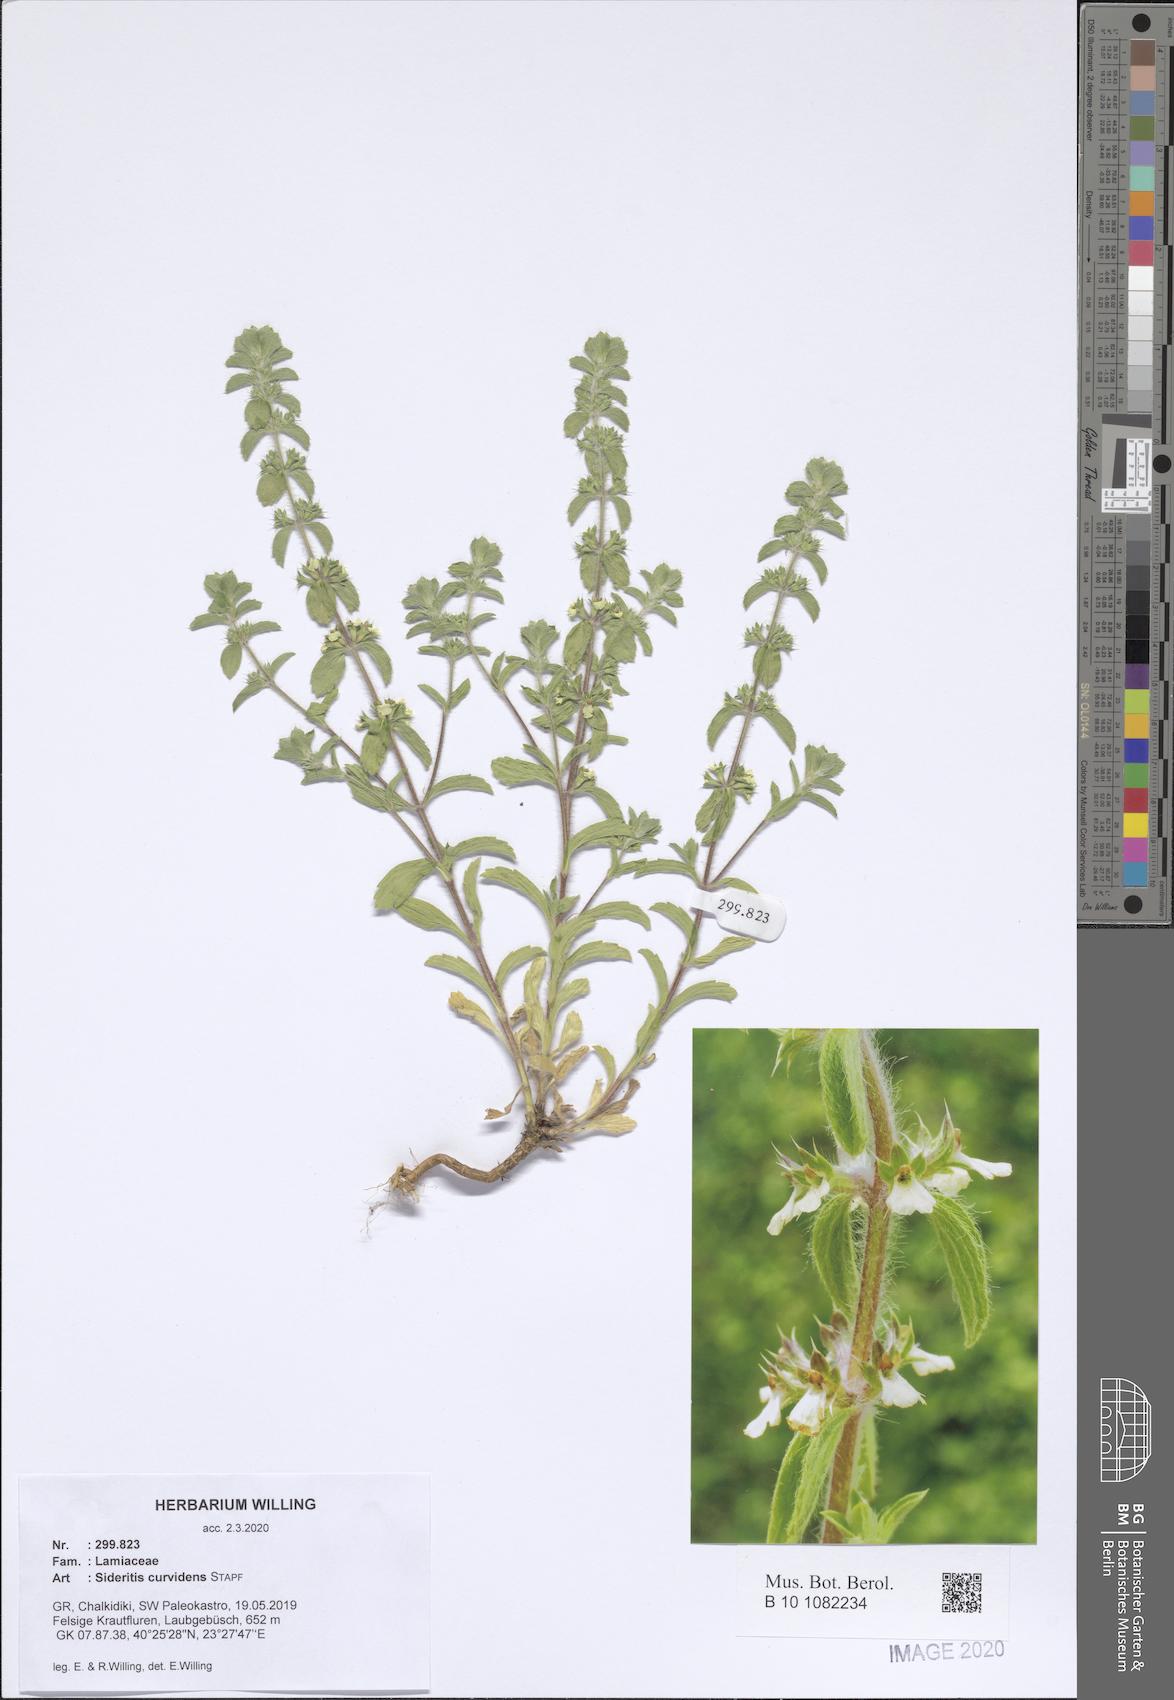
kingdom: Plantae
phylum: Tracheophyta
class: Magnoliopsida
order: Lamiales
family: Lamiaceae
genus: Sideritis
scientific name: Sideritis romana
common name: Simplebeak ironwort
